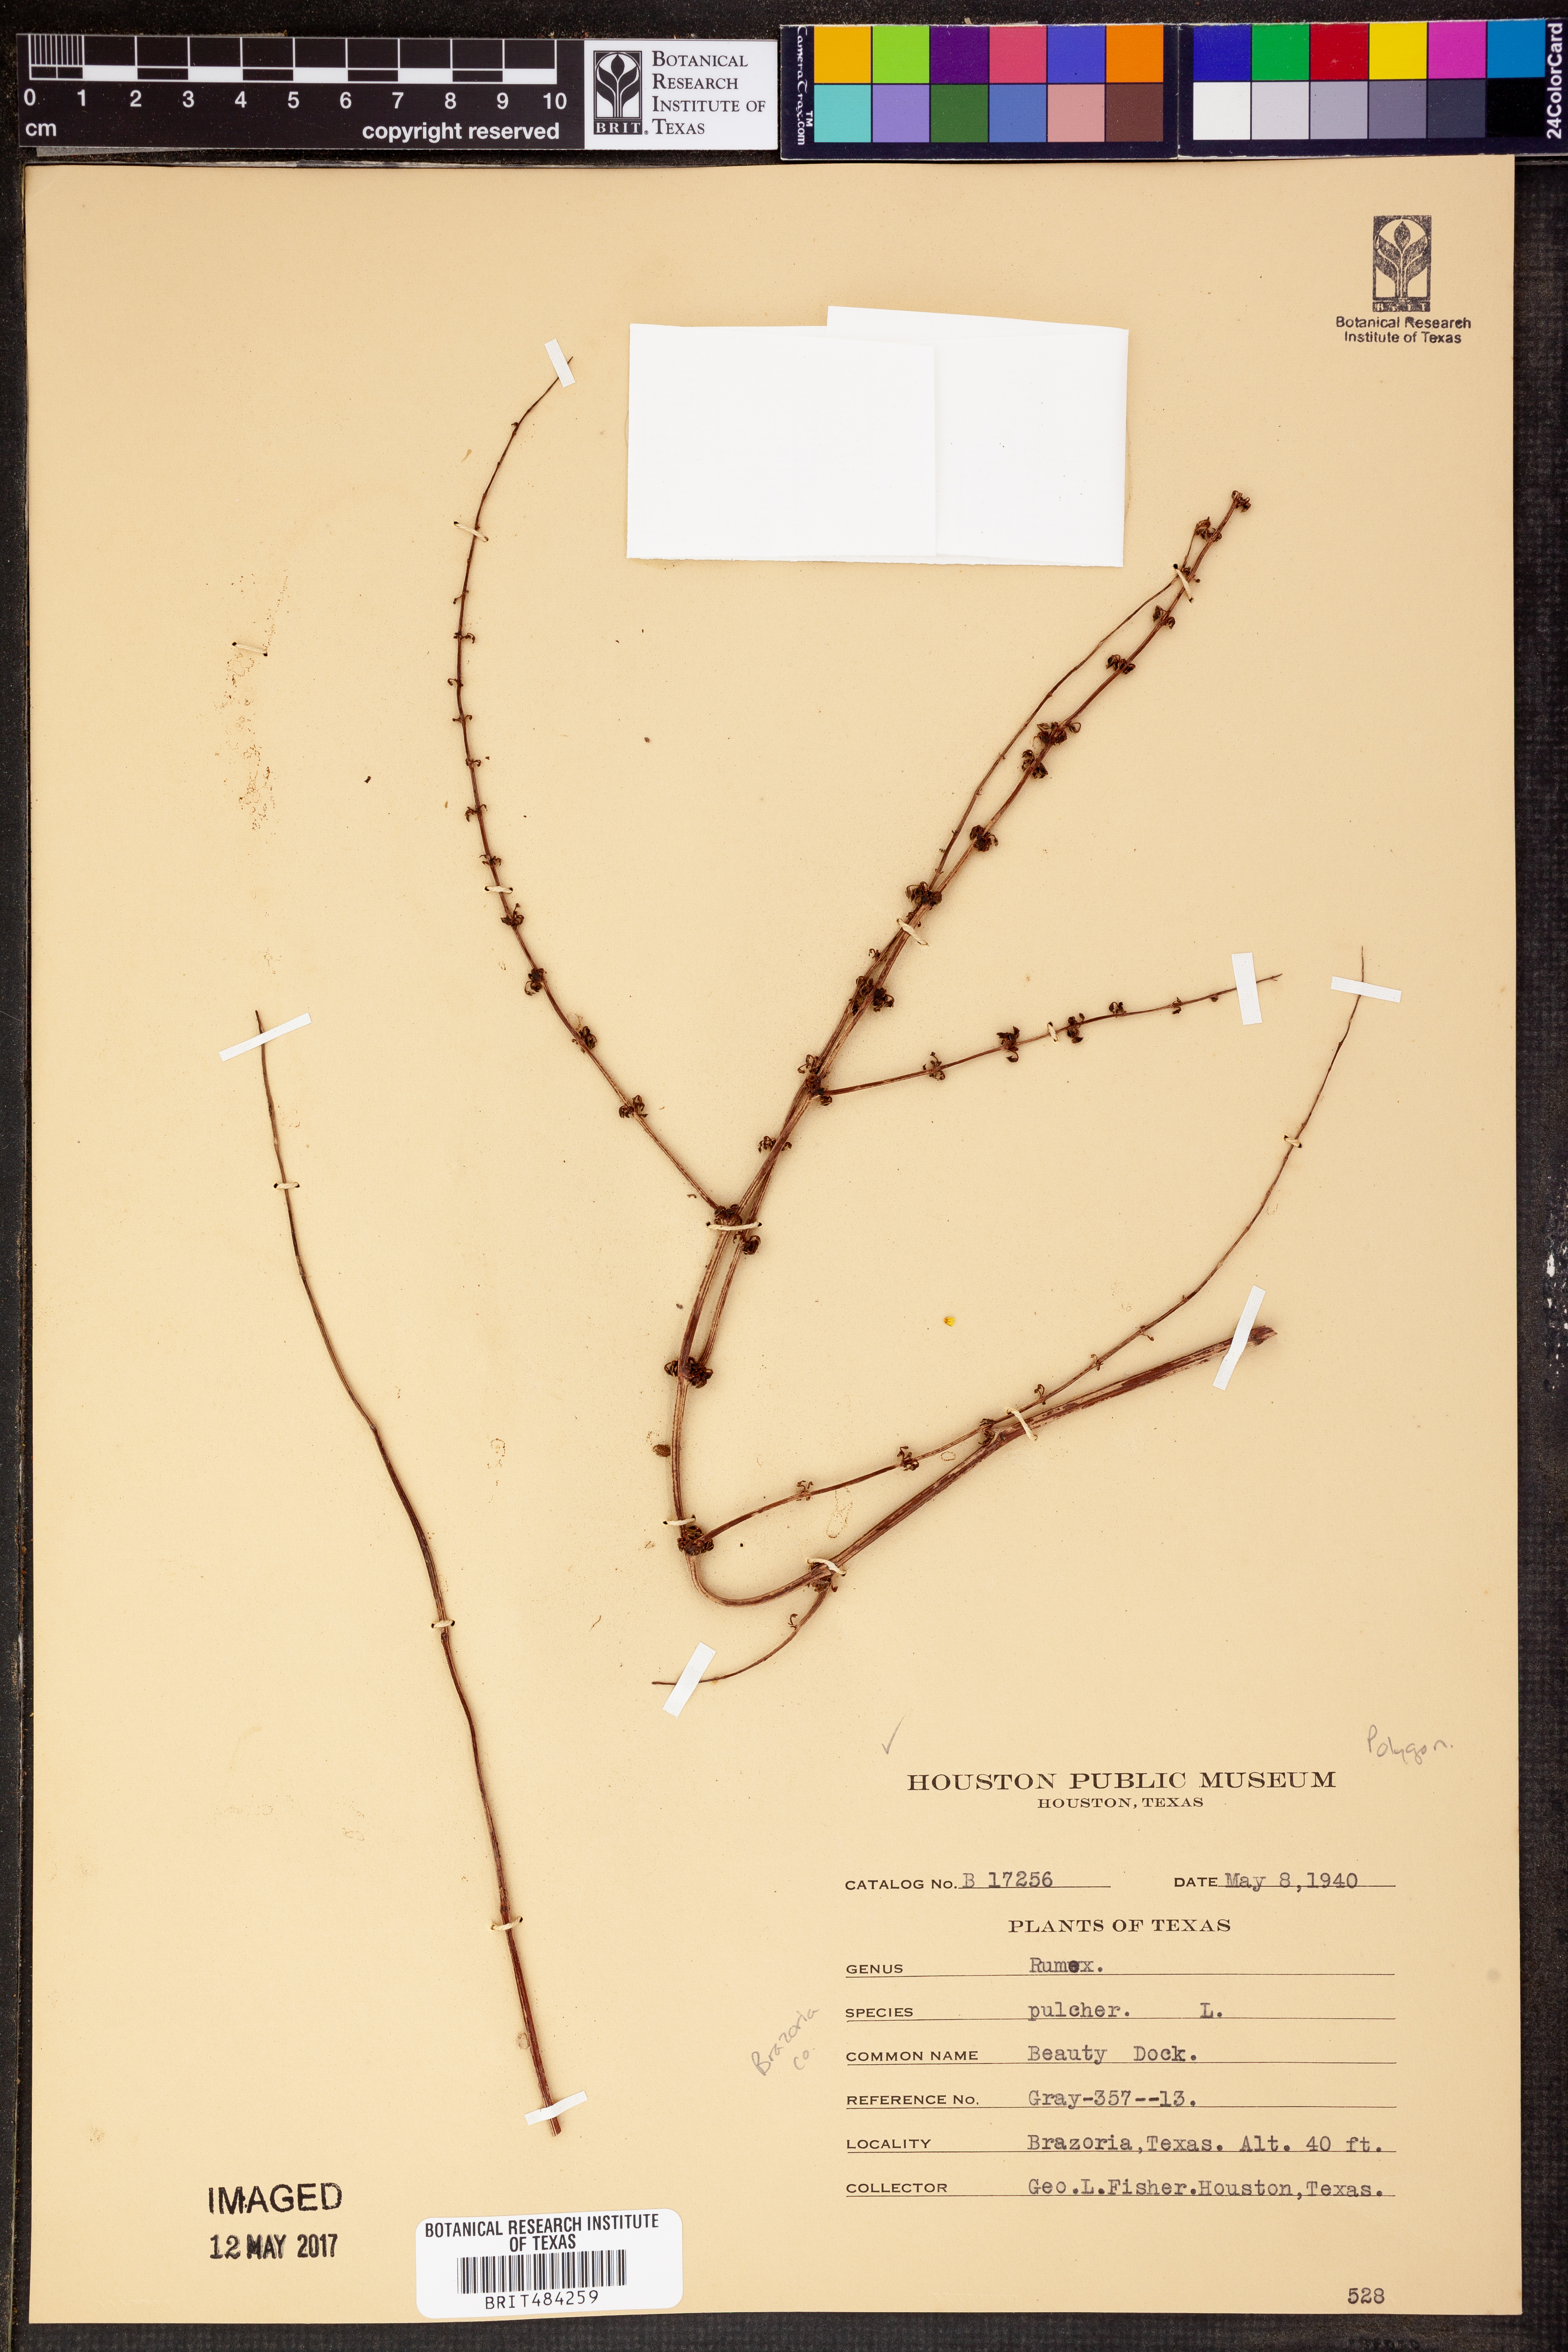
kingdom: Plantae
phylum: Tracheophyta
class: Magnoliopsida
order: Caryophyllales
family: Polygonaceae
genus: Rumex
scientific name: Rumex pulcher
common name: Fiddle dock
